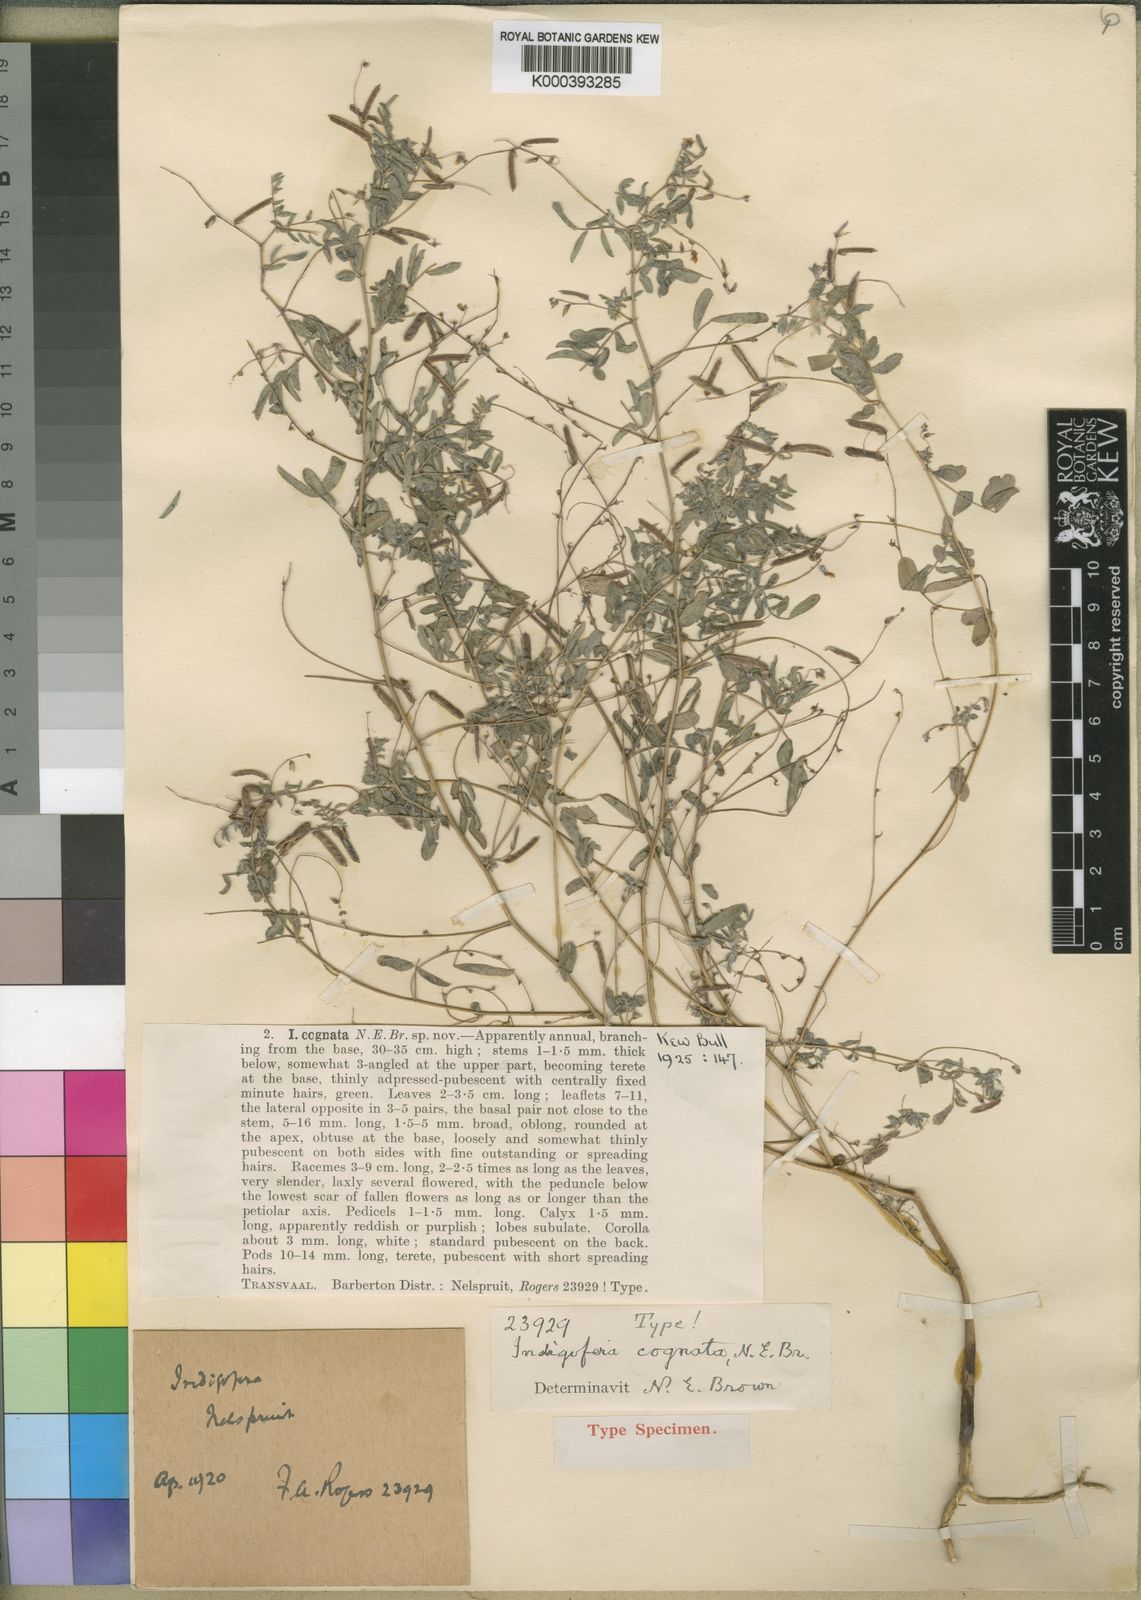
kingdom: Plantae
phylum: Tracheophyta
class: Magnoliopsida
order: Fabales
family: Fabaceae
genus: Indigofera
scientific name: Indigofera vicioides
